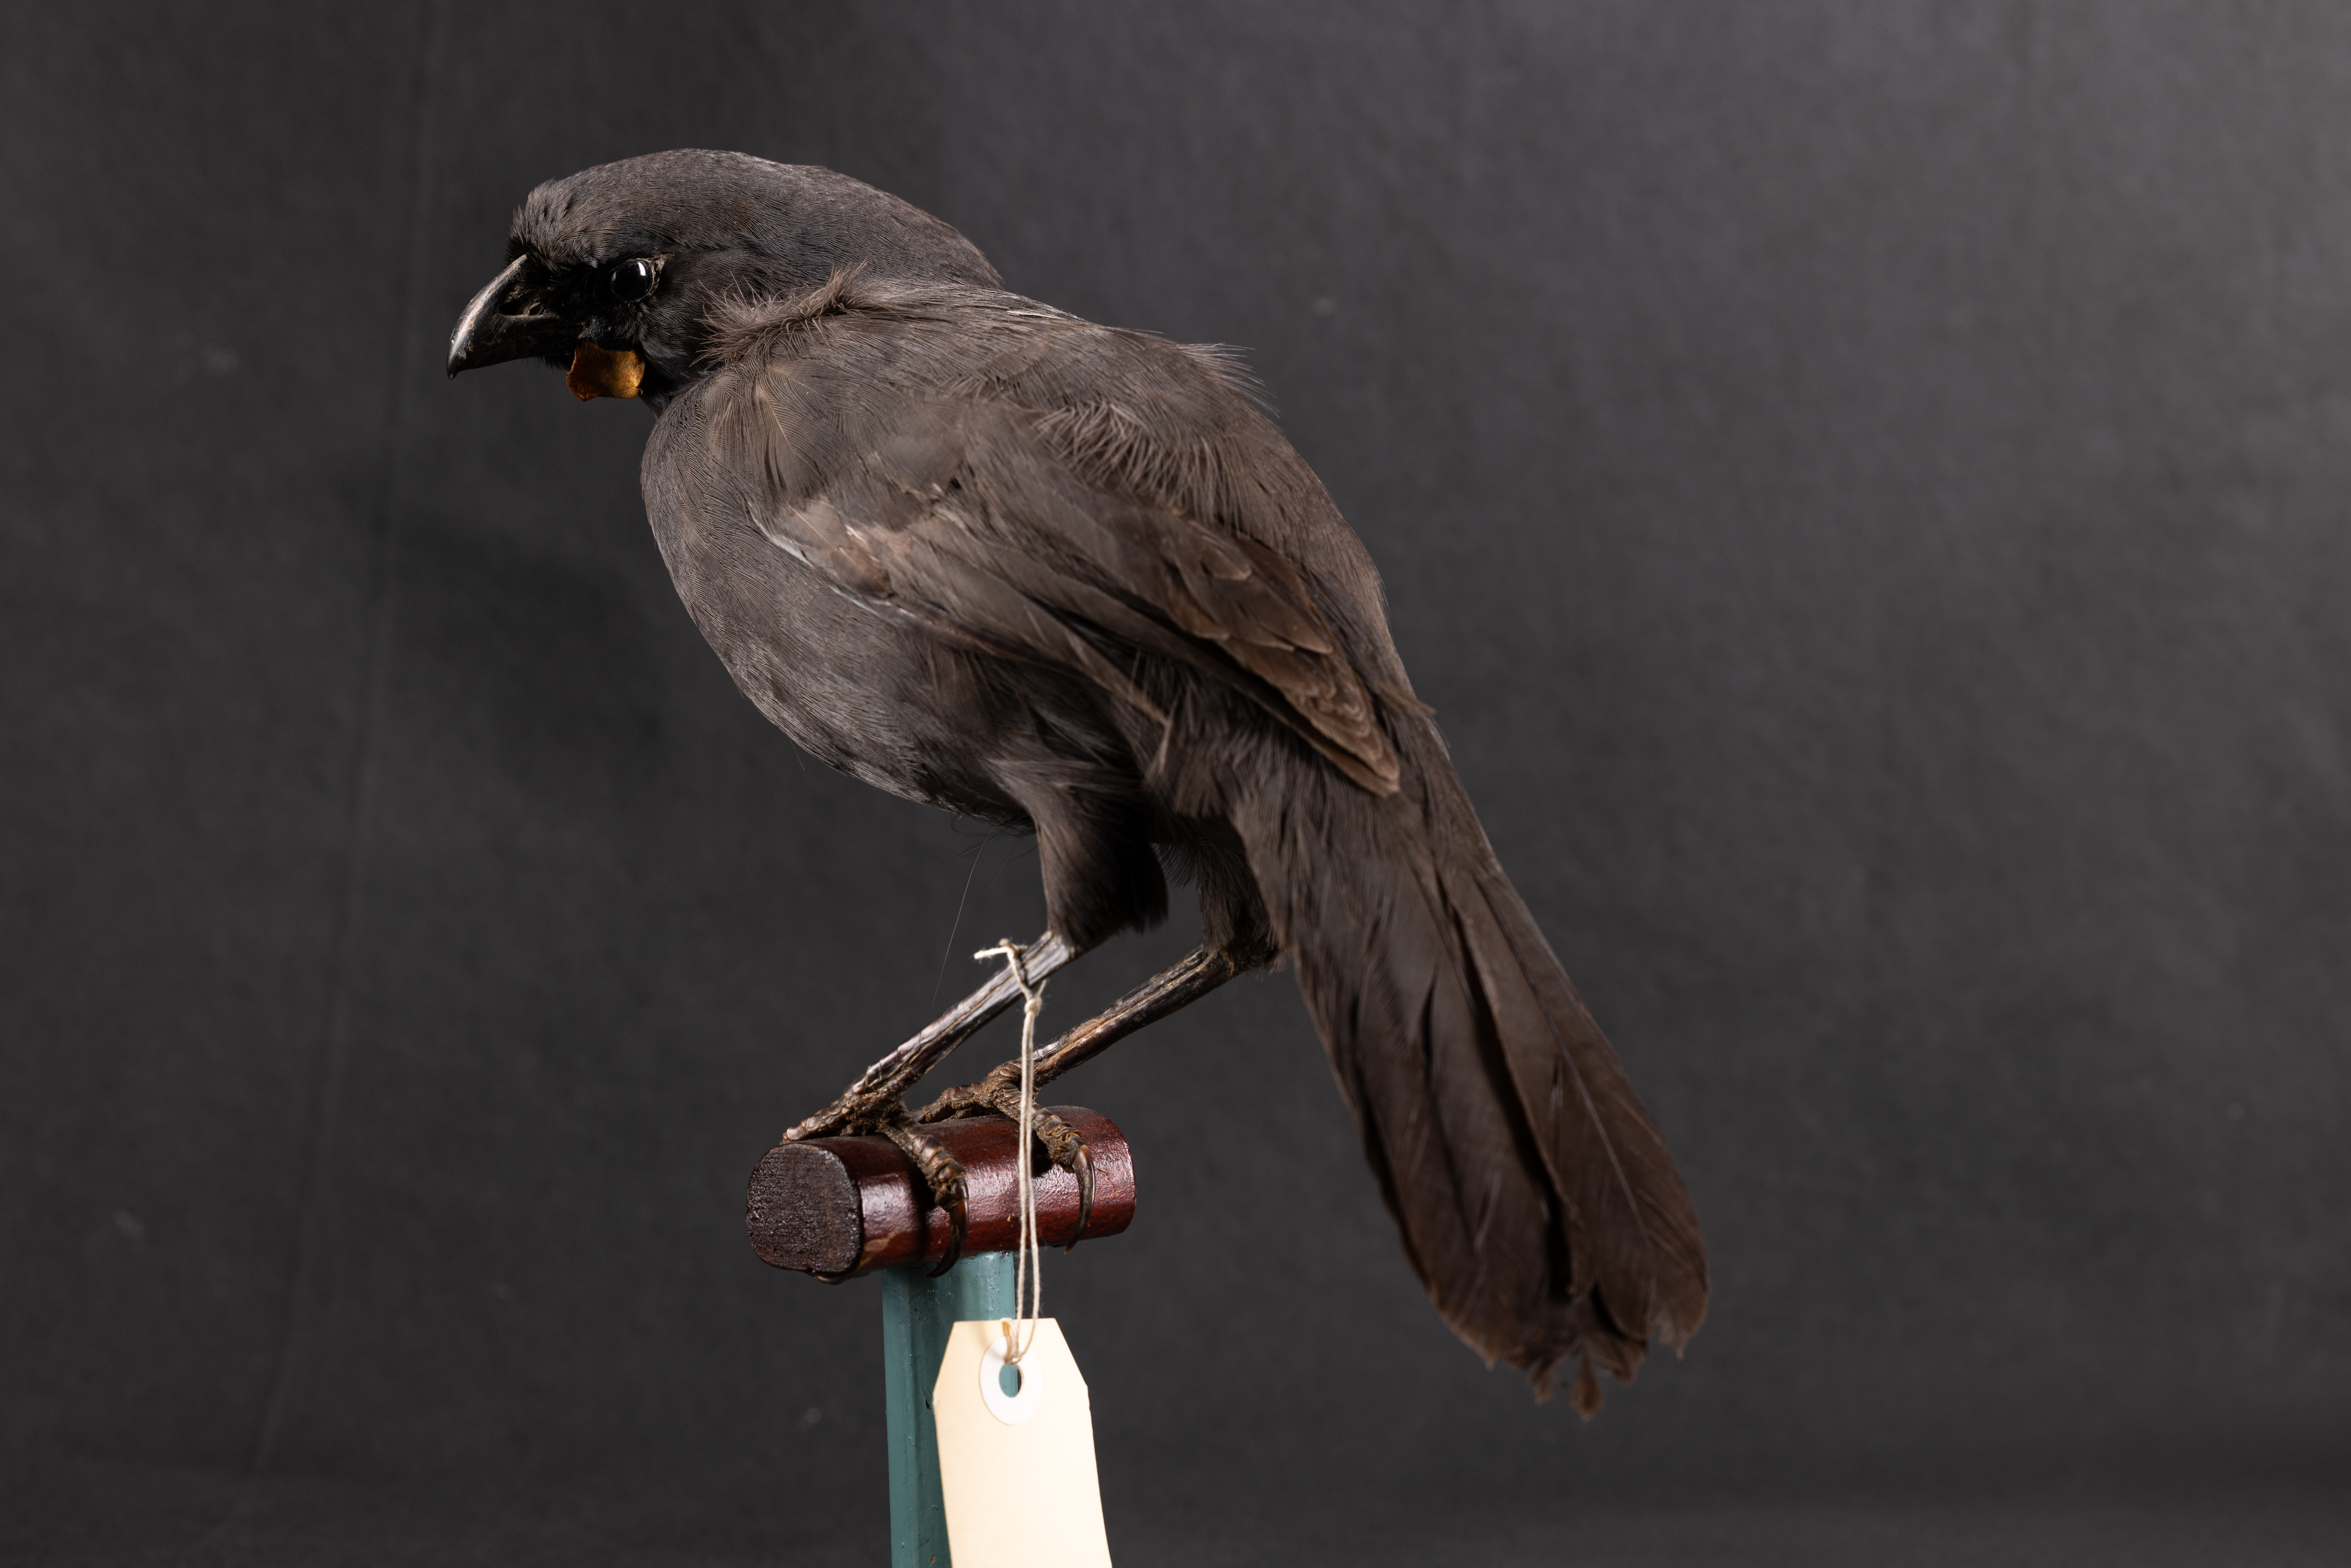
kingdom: Animalia
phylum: Chordata
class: Aves
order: Passeriformes
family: Callaeatidae
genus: Callaeas
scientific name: Callaeas cinereus
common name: South island kokako
